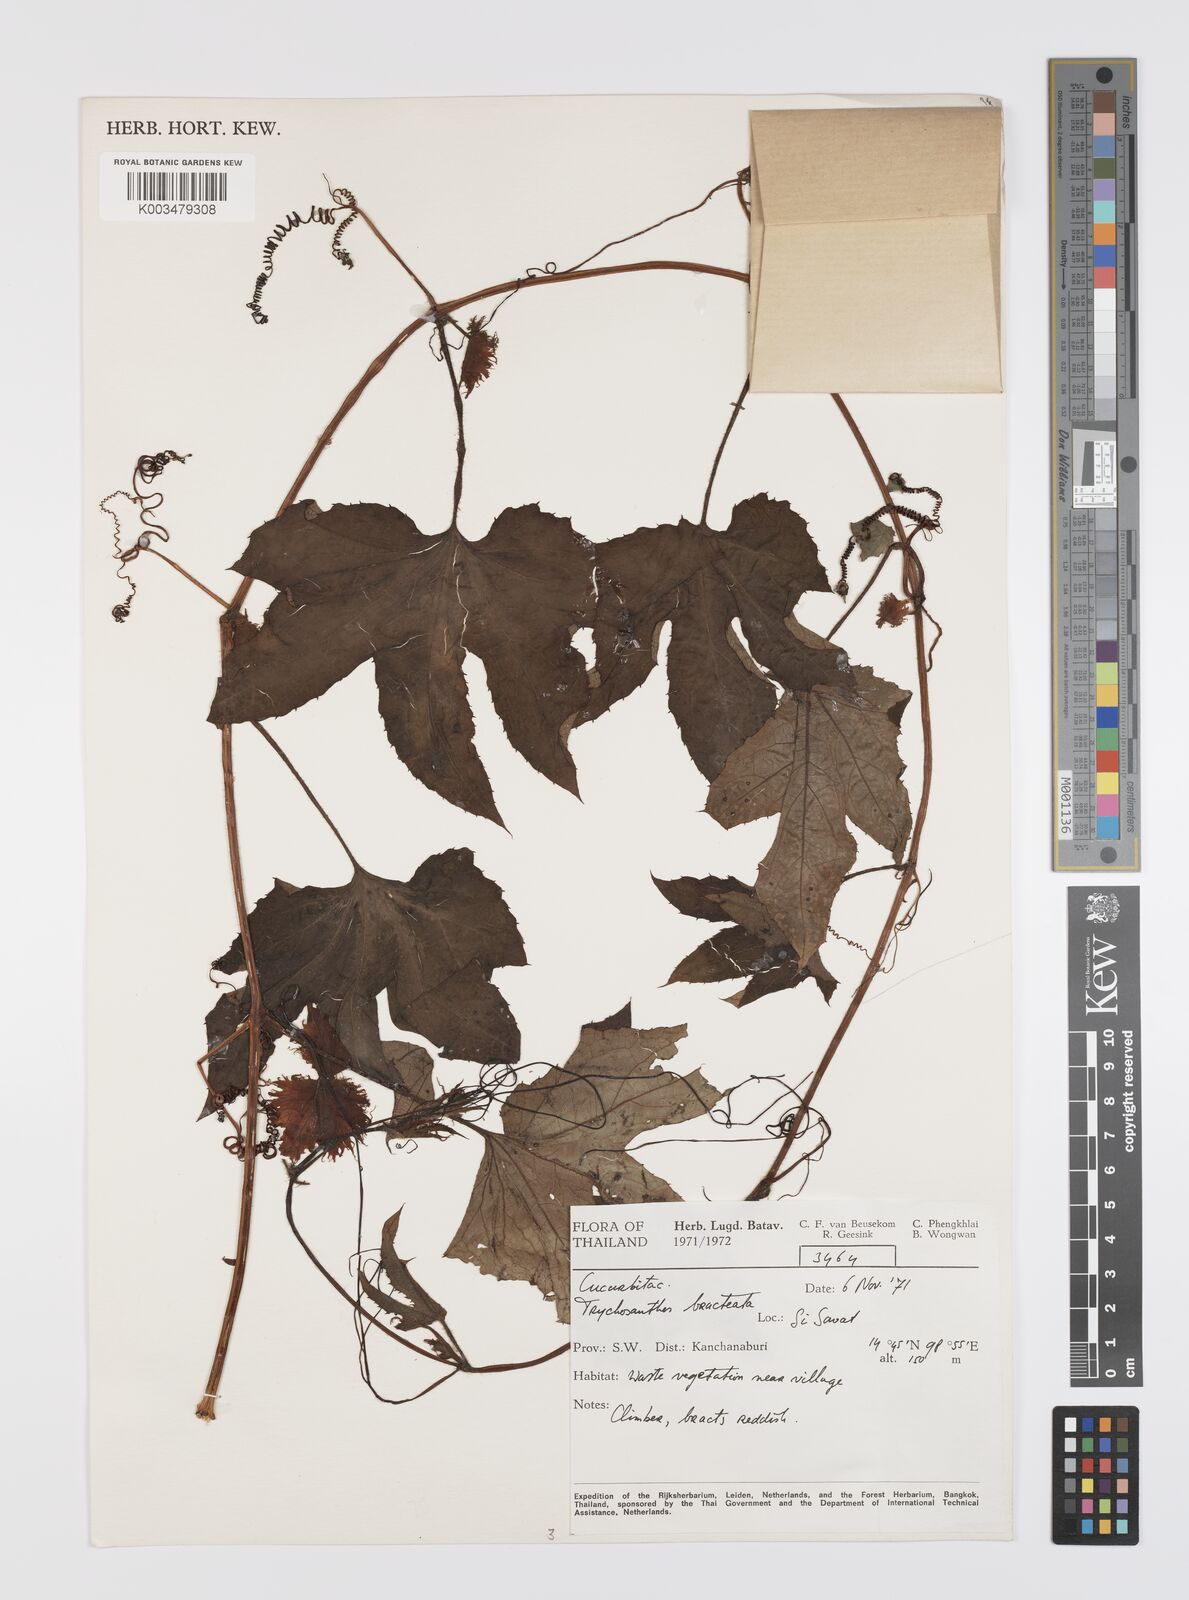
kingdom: Plantae
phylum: Tracheophyta
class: Magnoliopsida
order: Cucurbitales
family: Cucurbitaceae
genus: Trichosanthes
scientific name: Trichosanthes rubriflos
